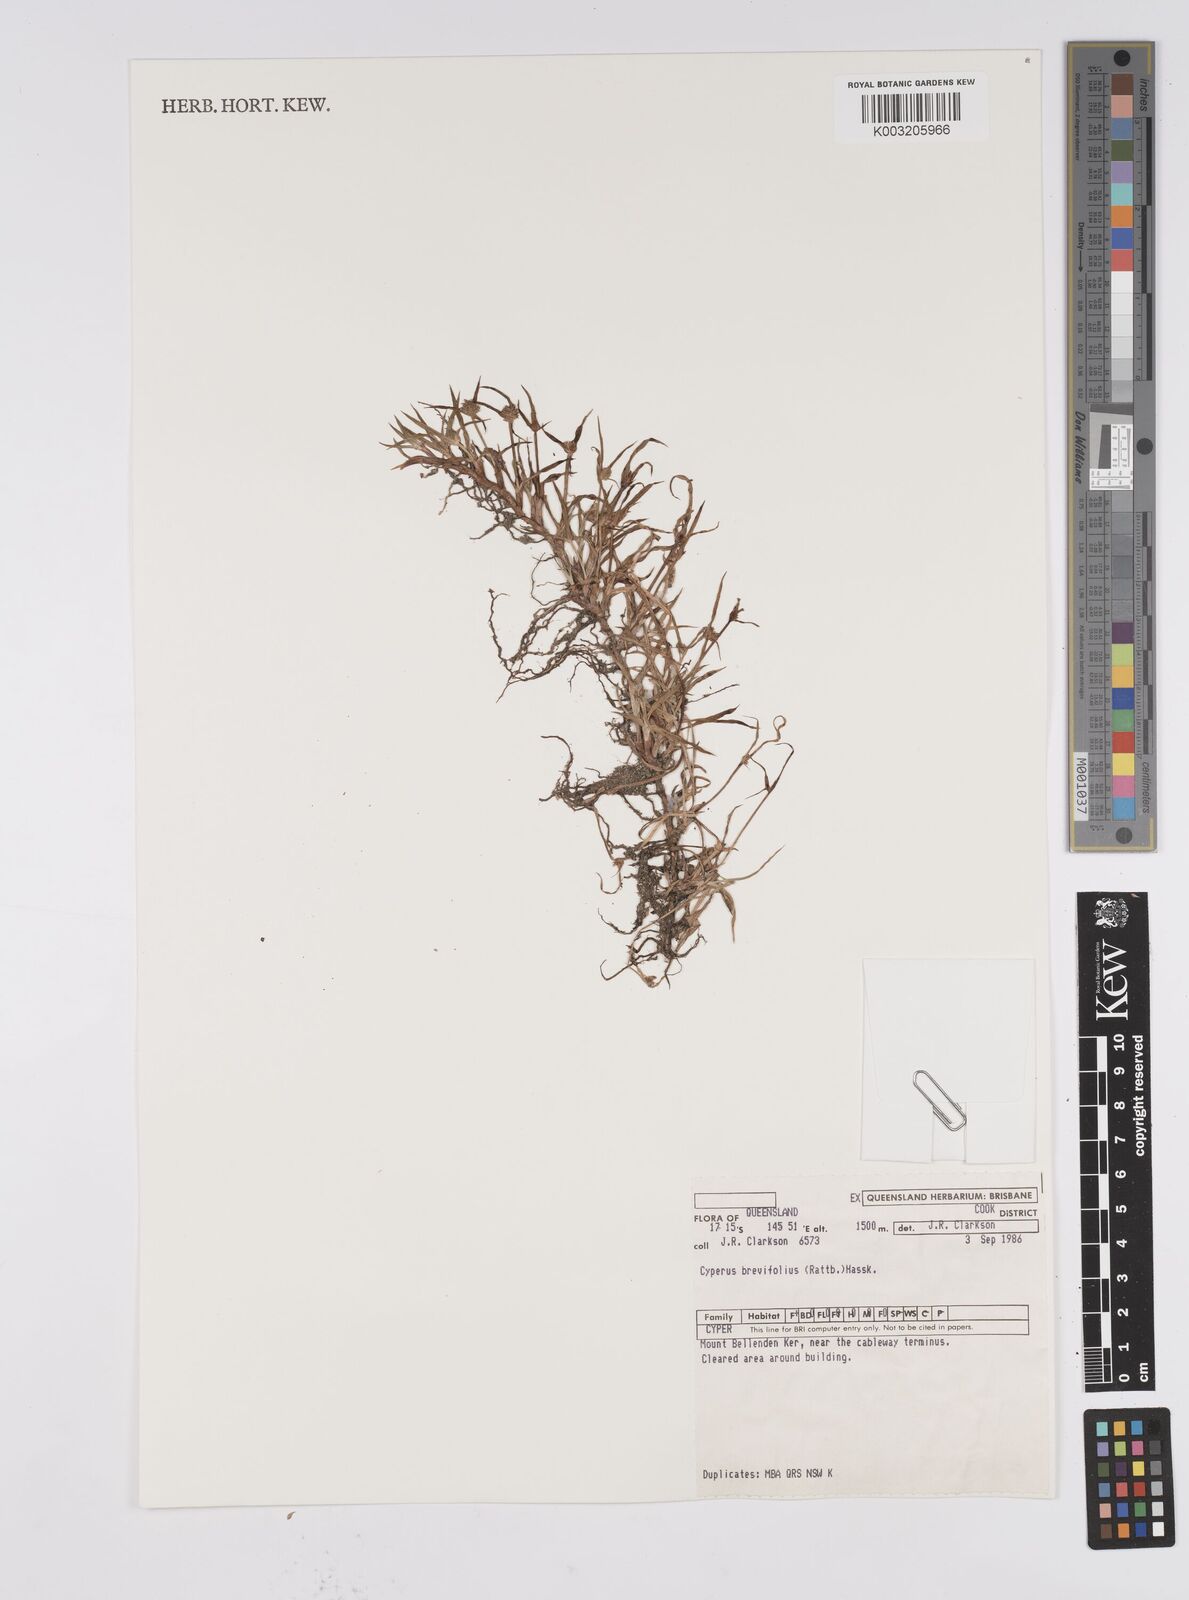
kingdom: Plantae
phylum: Tracheophyta
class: Liliopsida
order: Poales
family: Cyperaceae
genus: Cyperus
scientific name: Cyperus brevifolius
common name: Globe kyllinga
